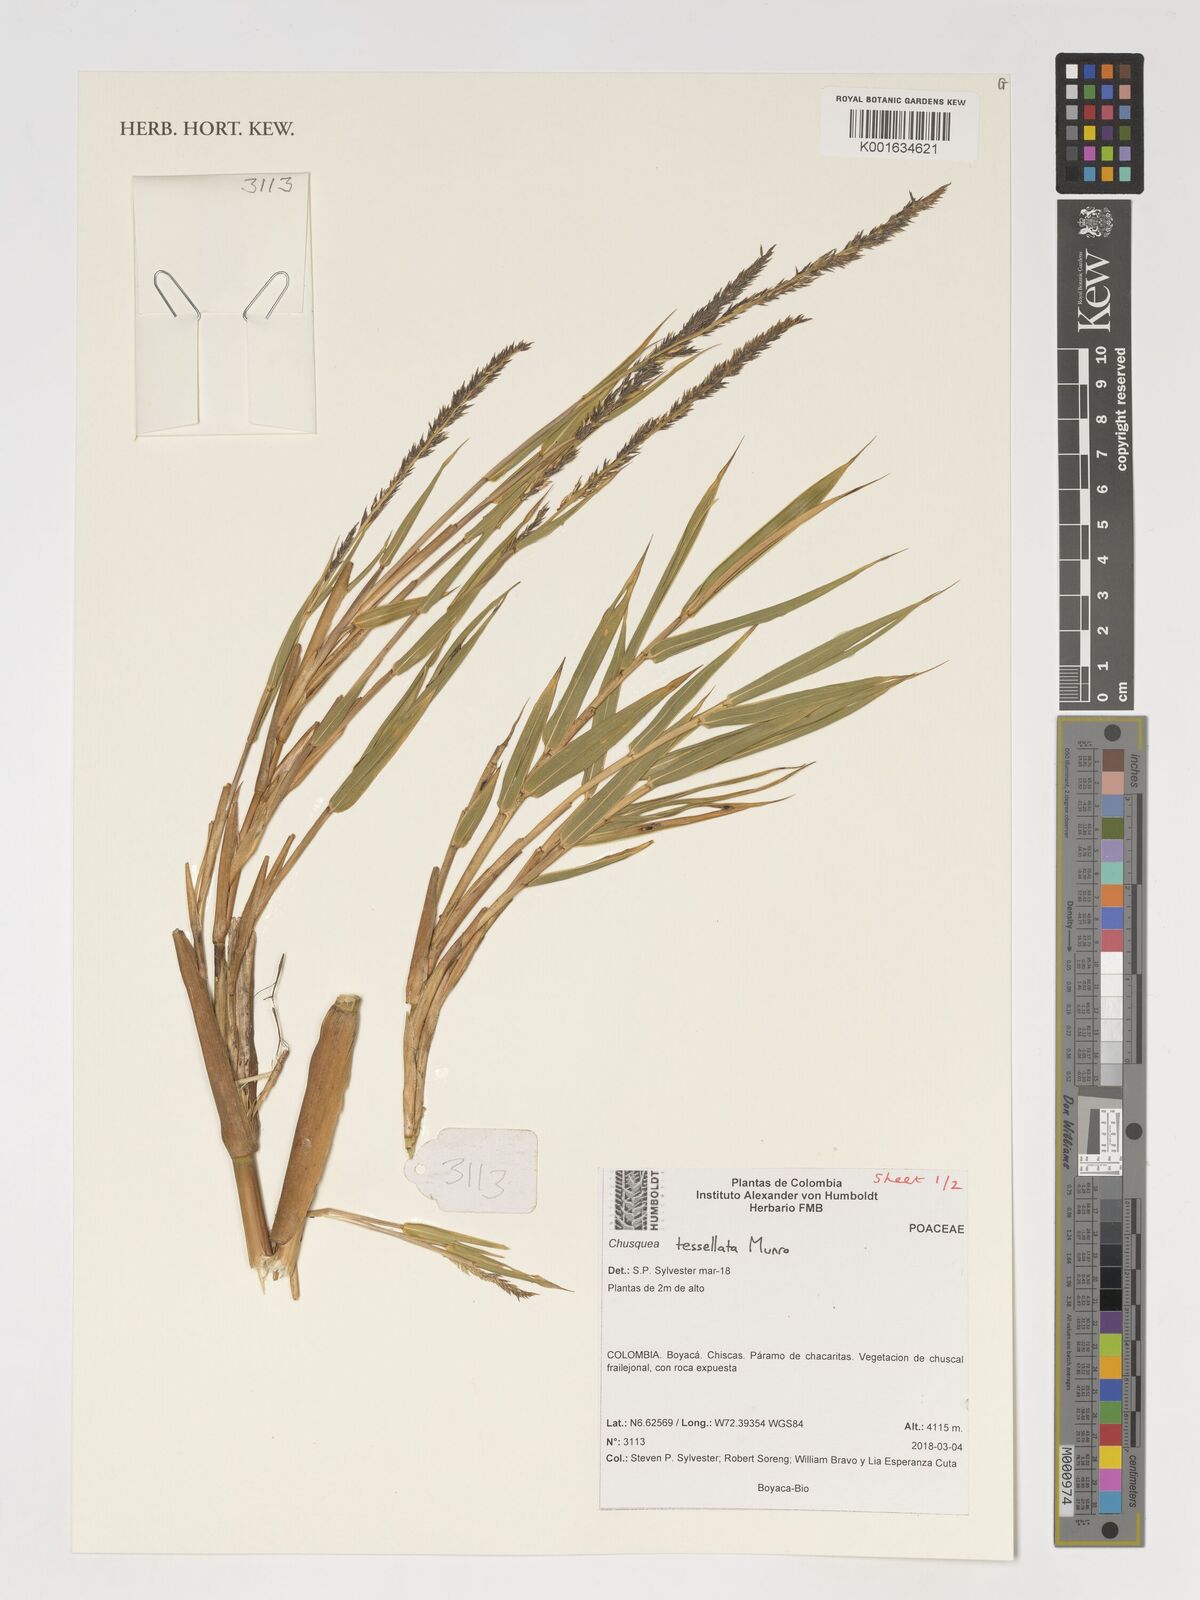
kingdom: Plantae
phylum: Tracheophyta
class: Liliopsida
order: Poales
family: Poaceae
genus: Chusquea
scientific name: Chusquea tessellata
